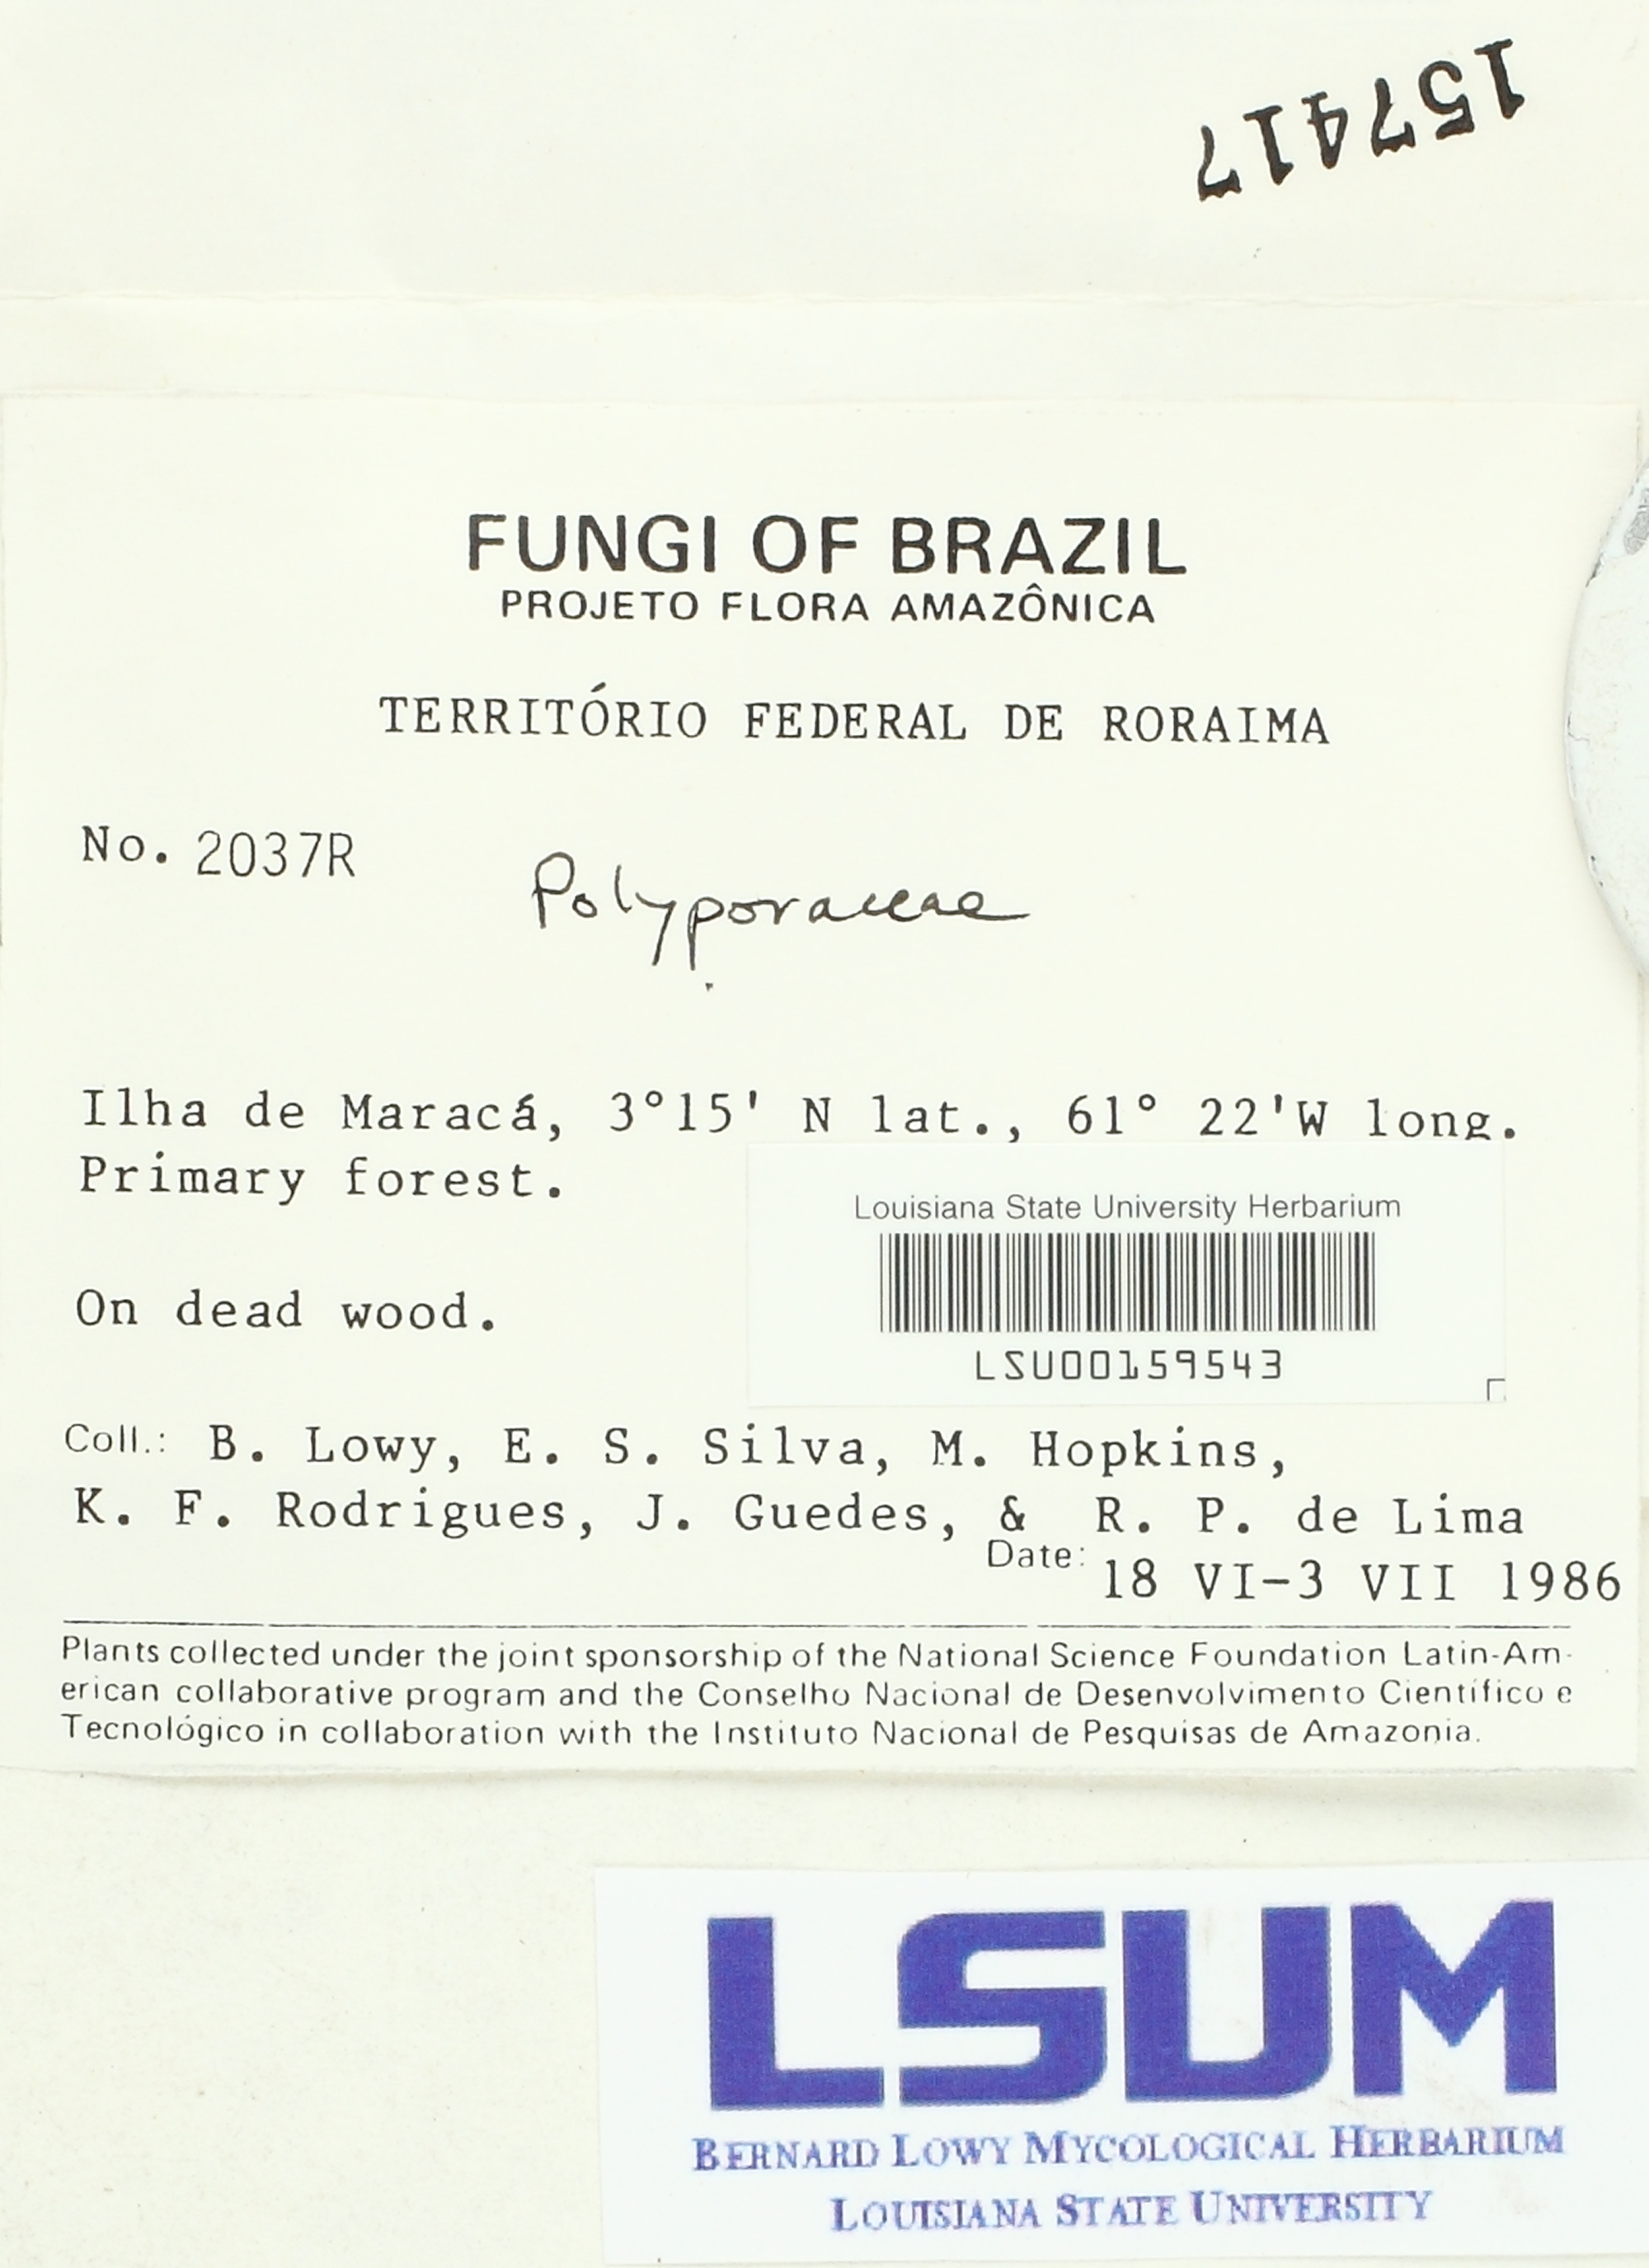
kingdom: Fungi
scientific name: Fungi
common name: Fungi
